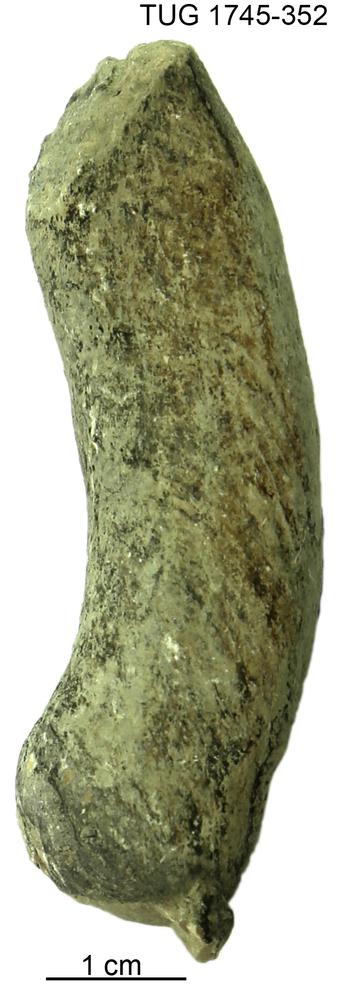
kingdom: Animalia
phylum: Mollusca
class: Cephalopoda
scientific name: Cephalopoda
